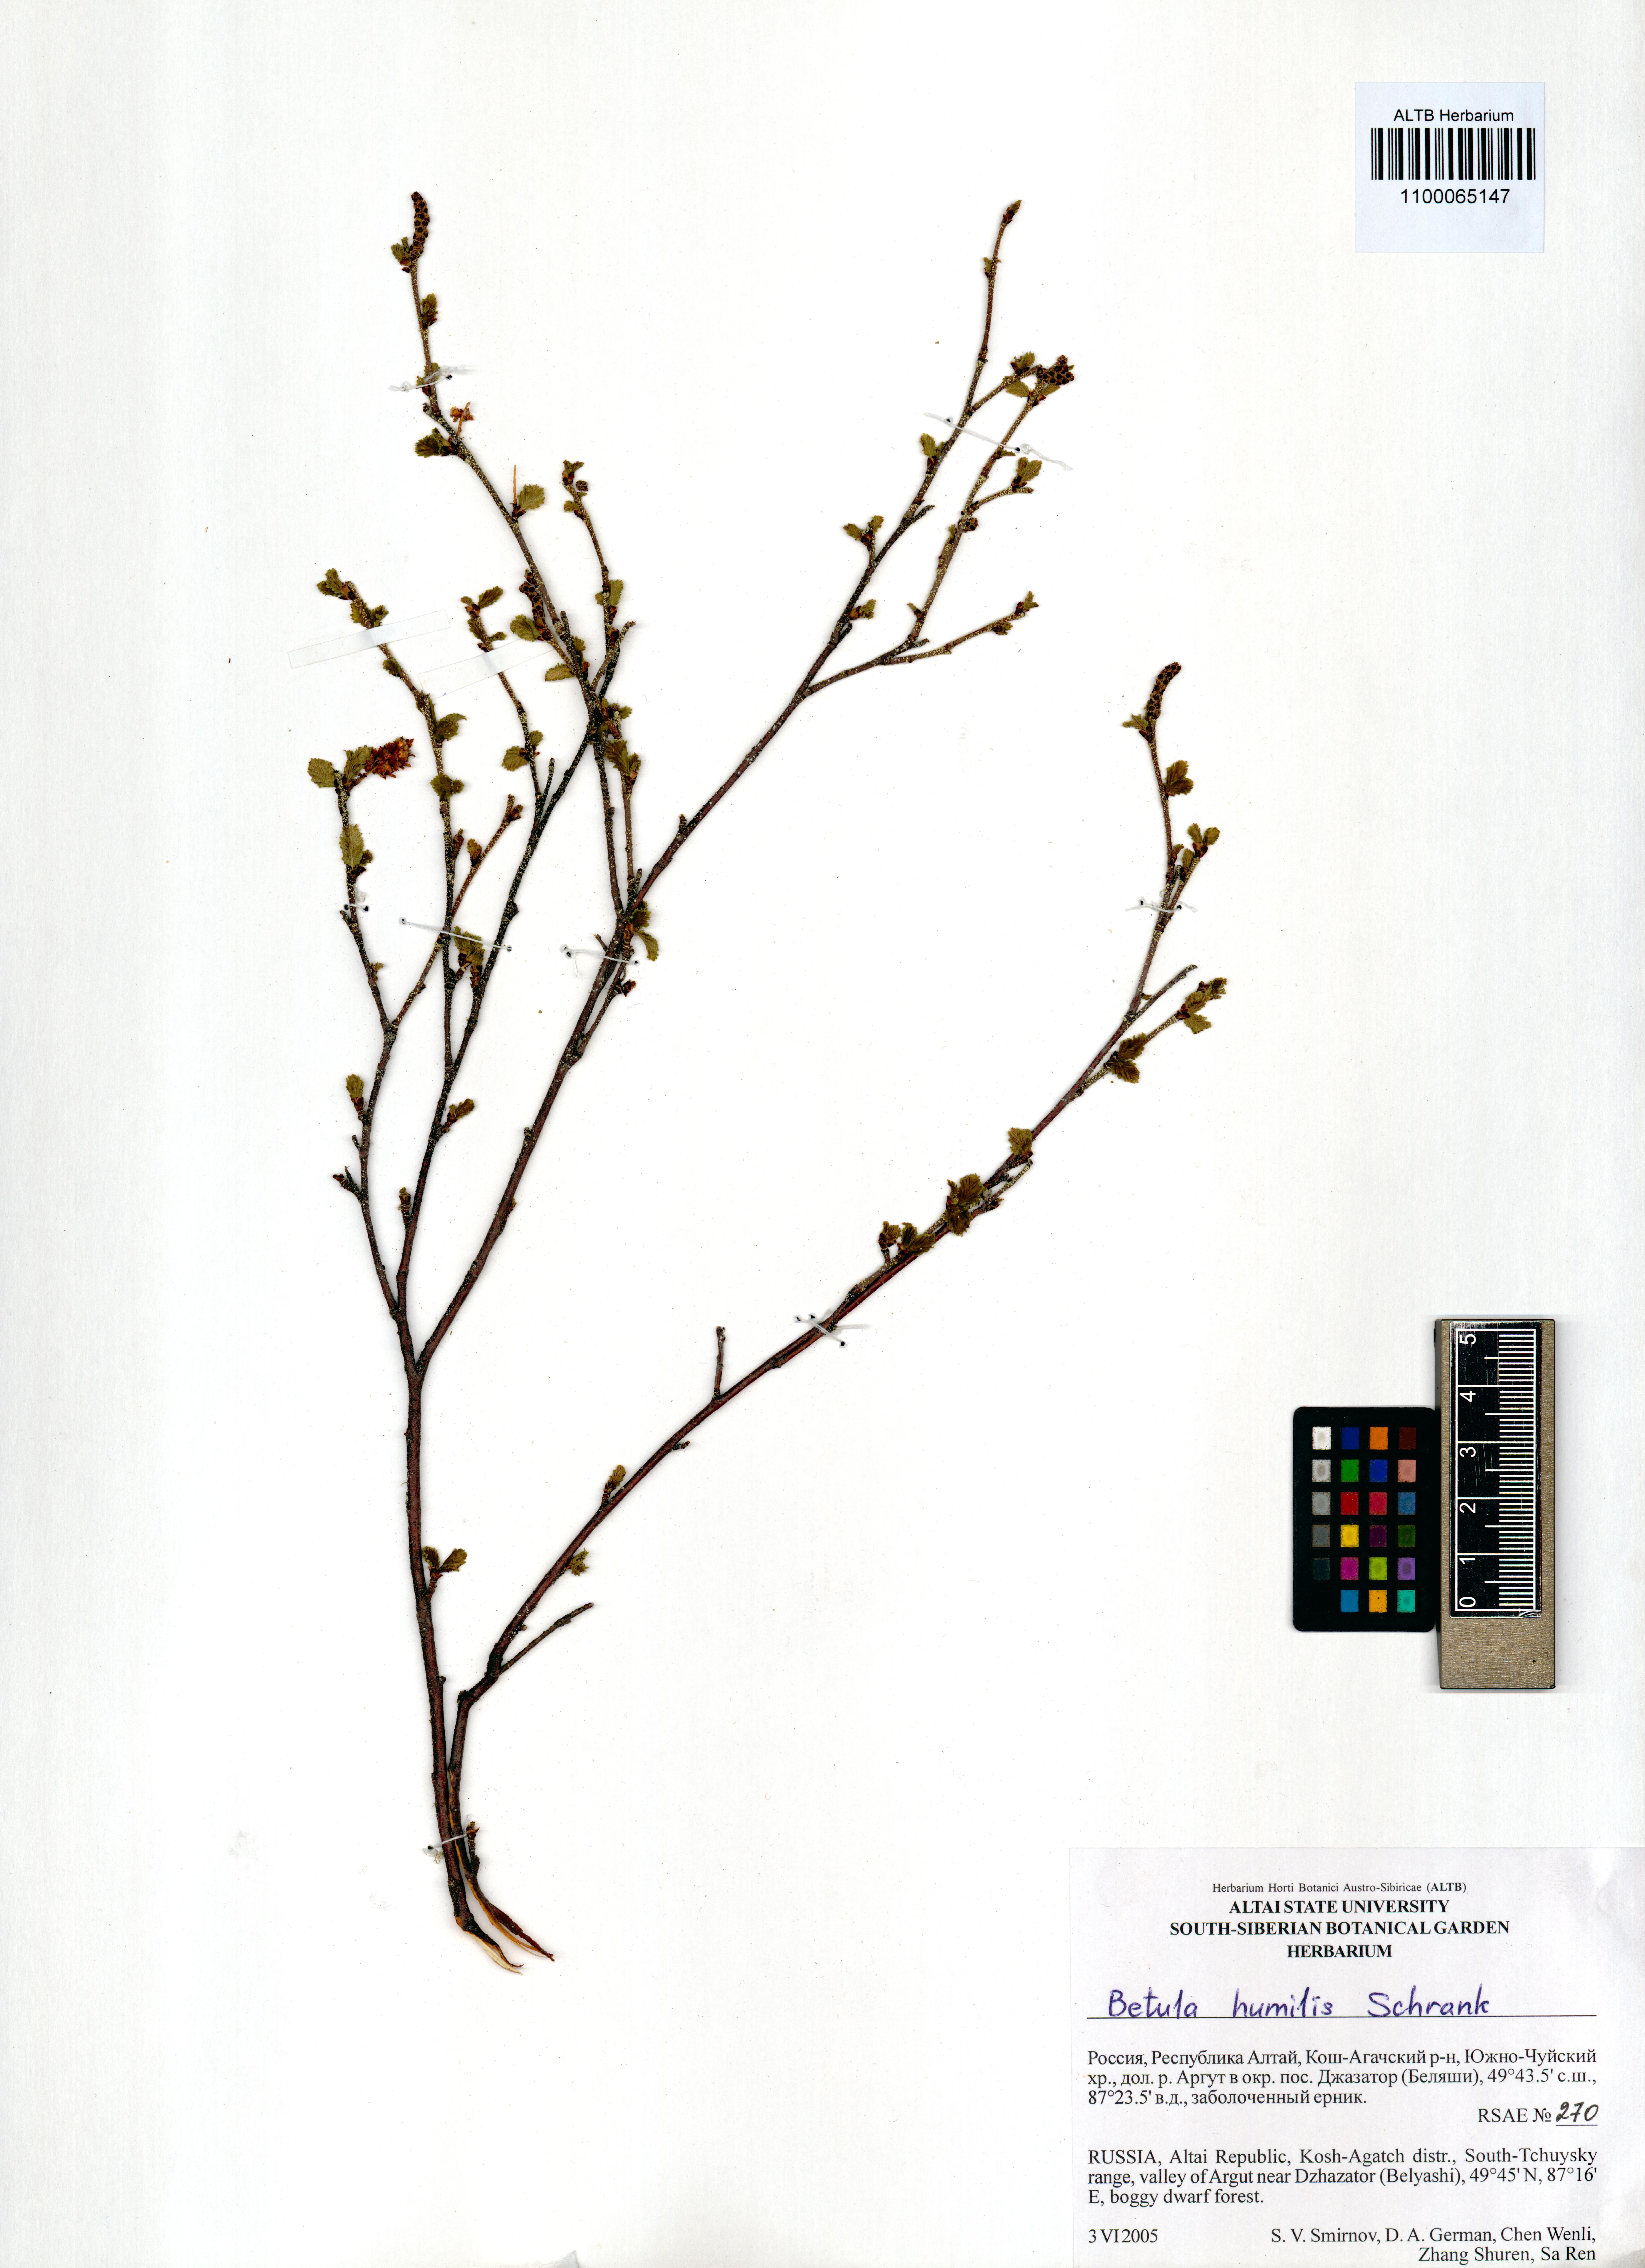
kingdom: Plantae
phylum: Tracheophyta
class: Magnoliopsida
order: Fagales
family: Betulaceae
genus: Betula
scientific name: Betula humilis
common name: Shrubby birch
